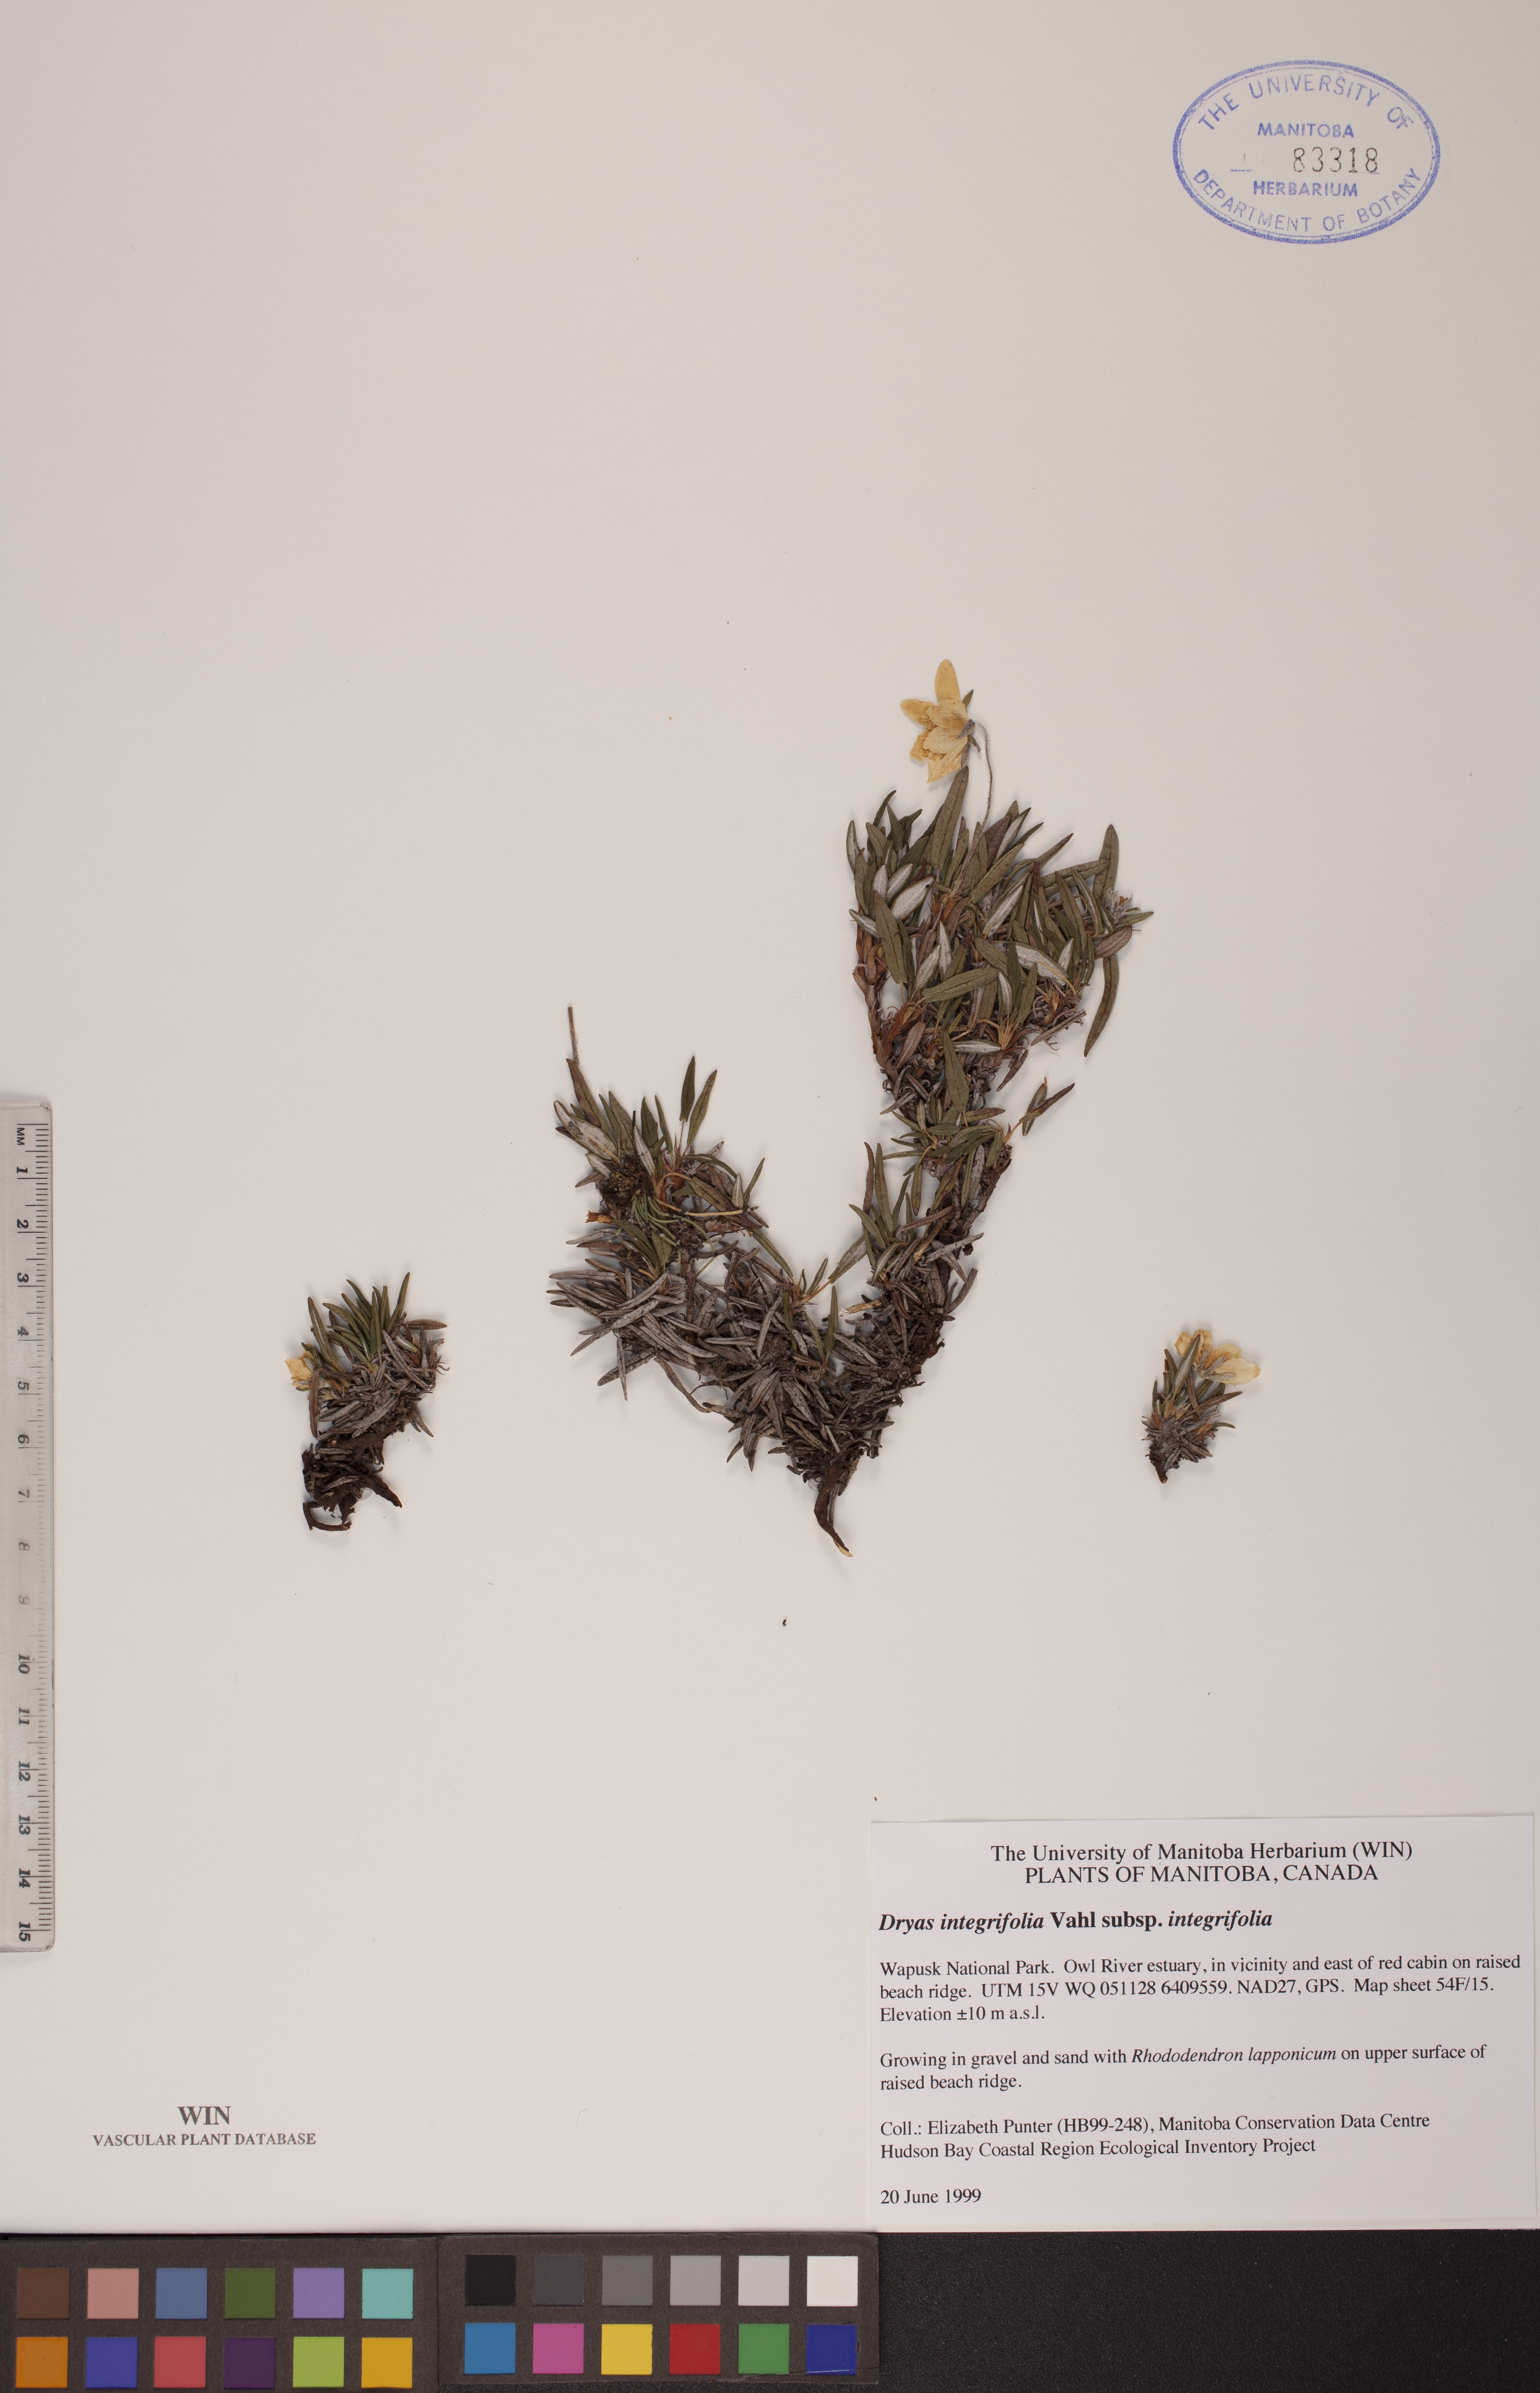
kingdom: Plantae
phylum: Tracheophyta
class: Magnoliopsida
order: Rosales
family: Rosaceae
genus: Dryas
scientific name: Dryas integrifolia
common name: Entire-leaved mountain avens
